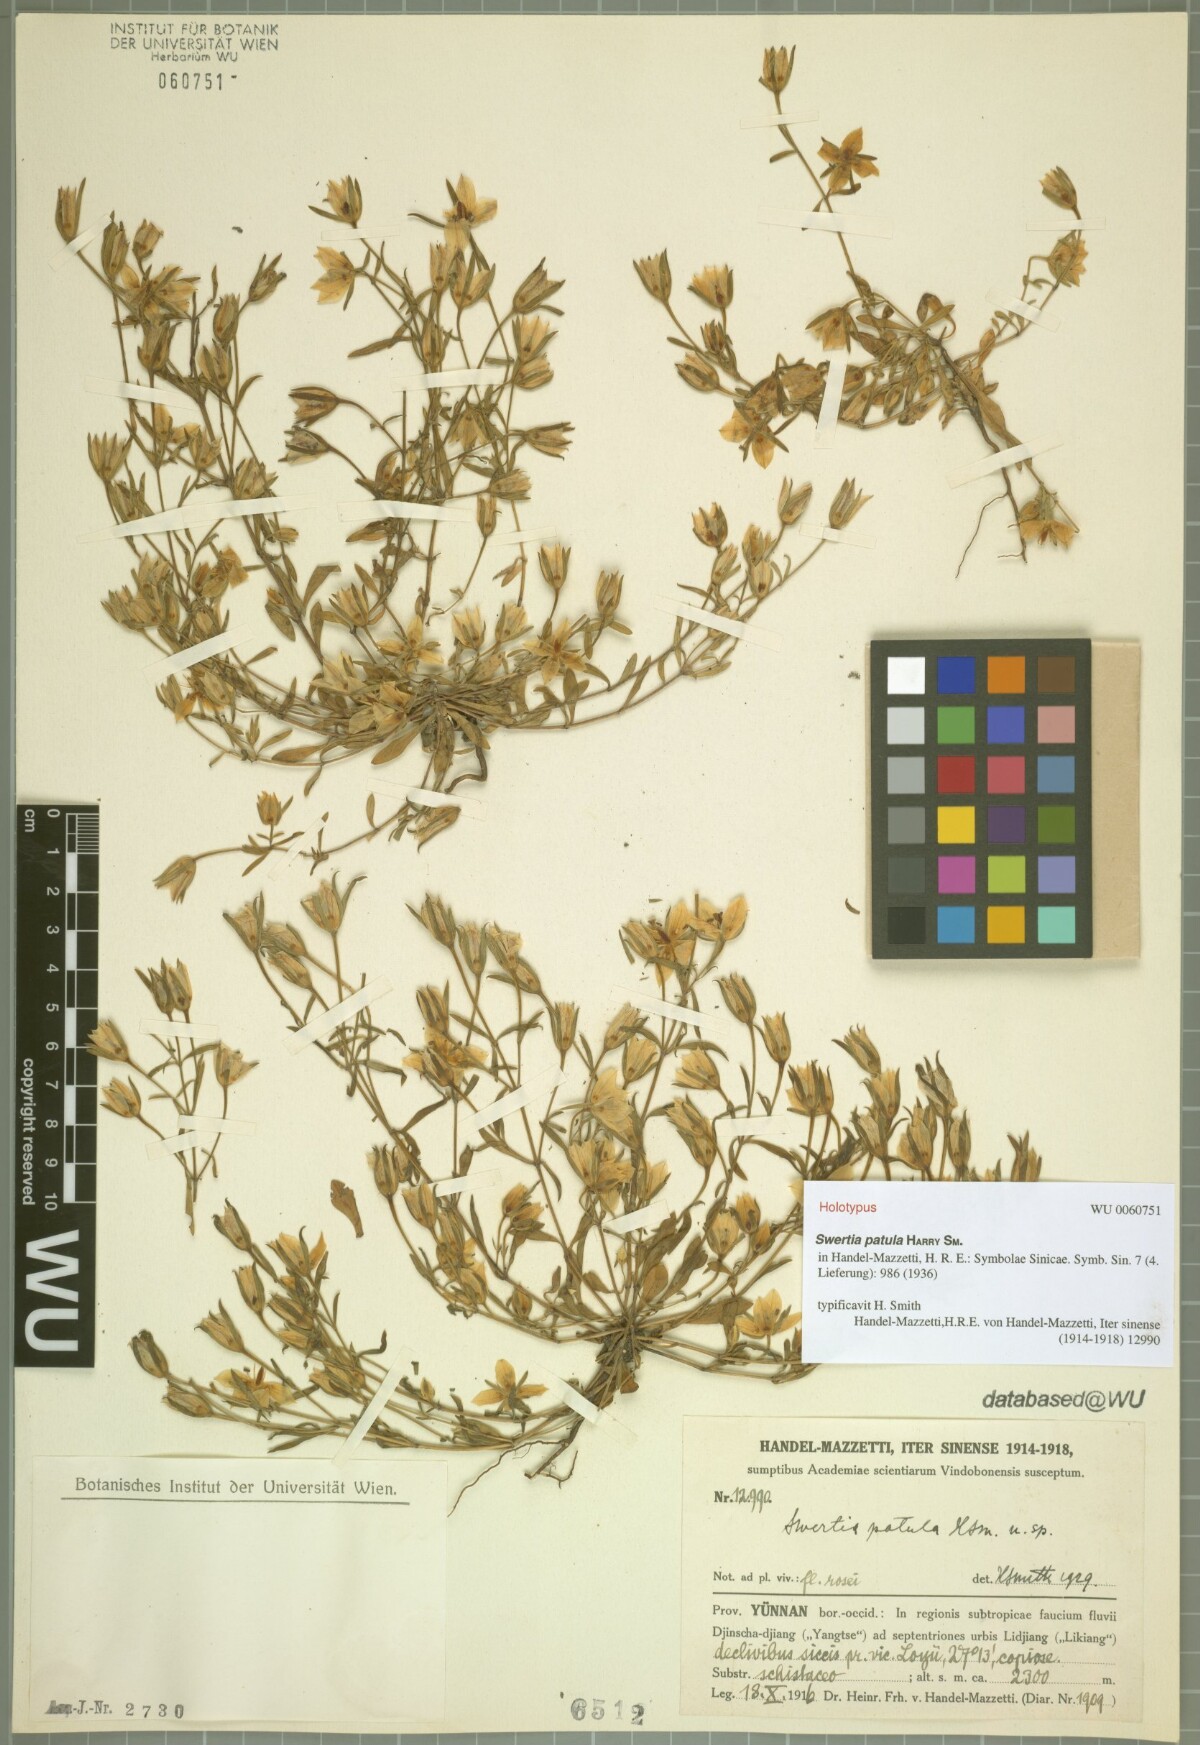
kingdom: Plantae
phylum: Tracheophyta
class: Magnoliopsida
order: Gentianales
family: Gentianaceae
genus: Swertia
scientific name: Swertia patula
